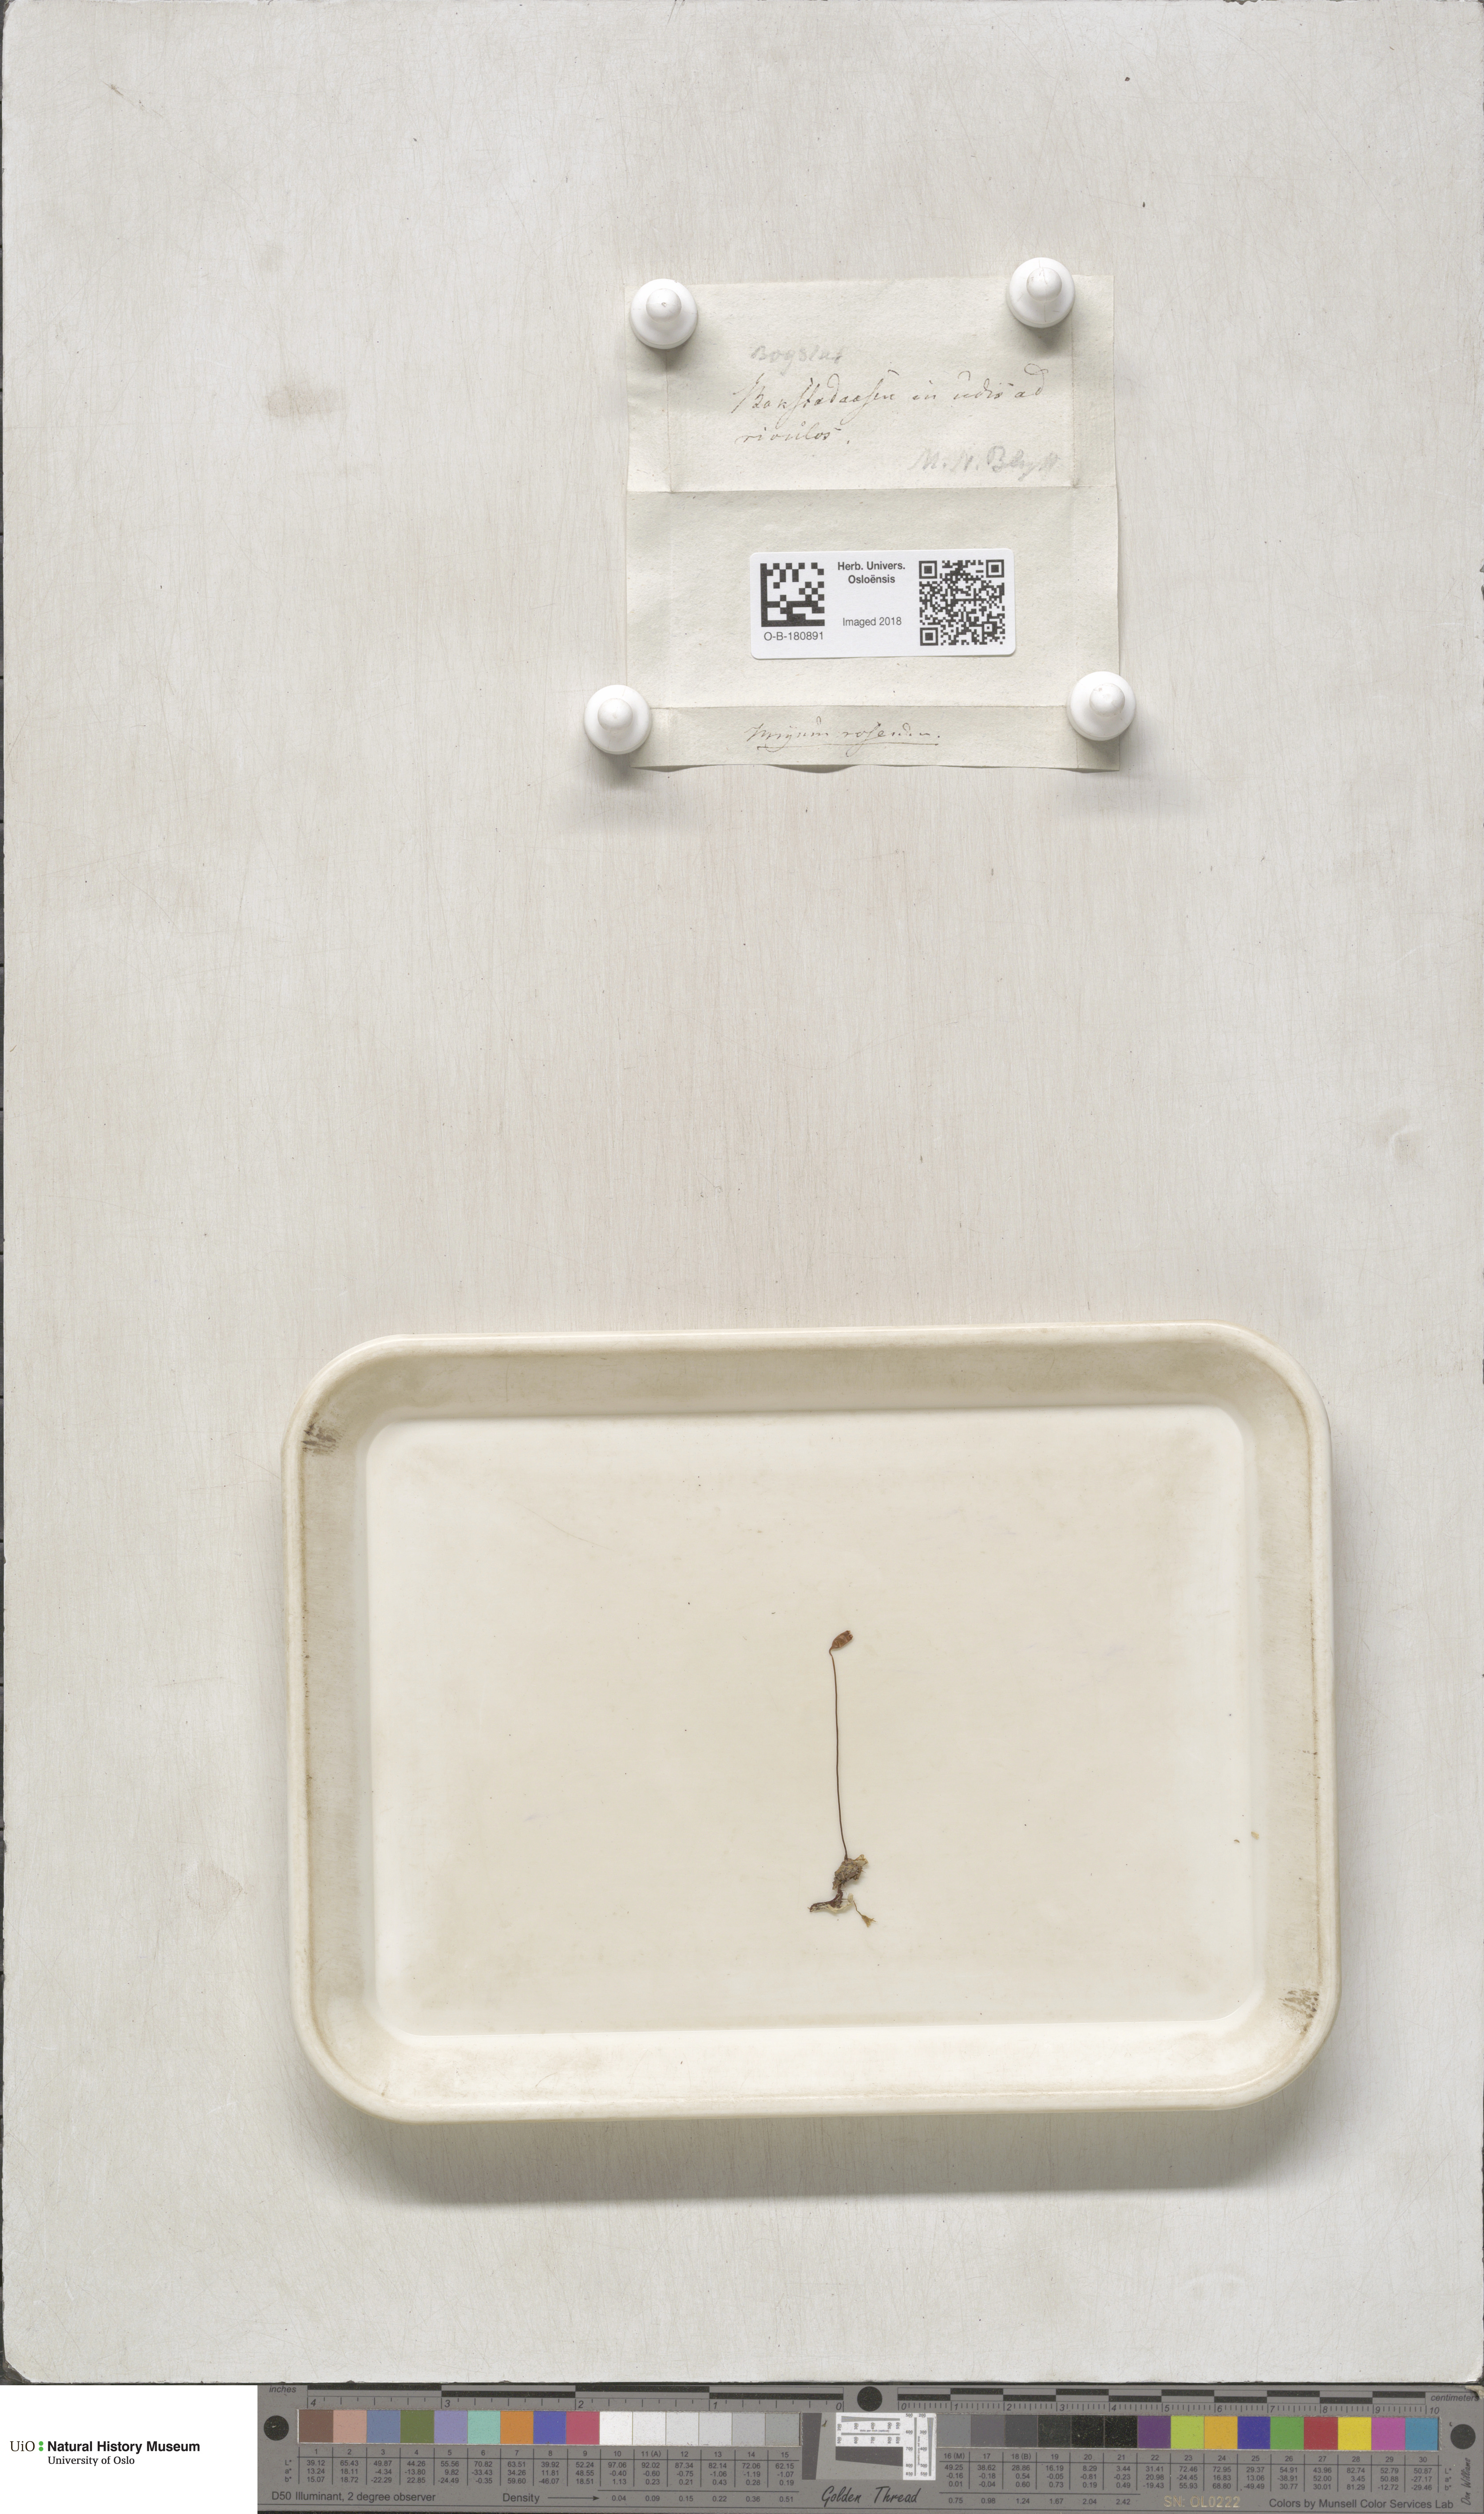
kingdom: Plantae
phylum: Bryophyta
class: Bryopsida
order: Bryales
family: Bryaceae
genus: Rhodobryum
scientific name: Rhodobryum roseum
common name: Rose-moss
